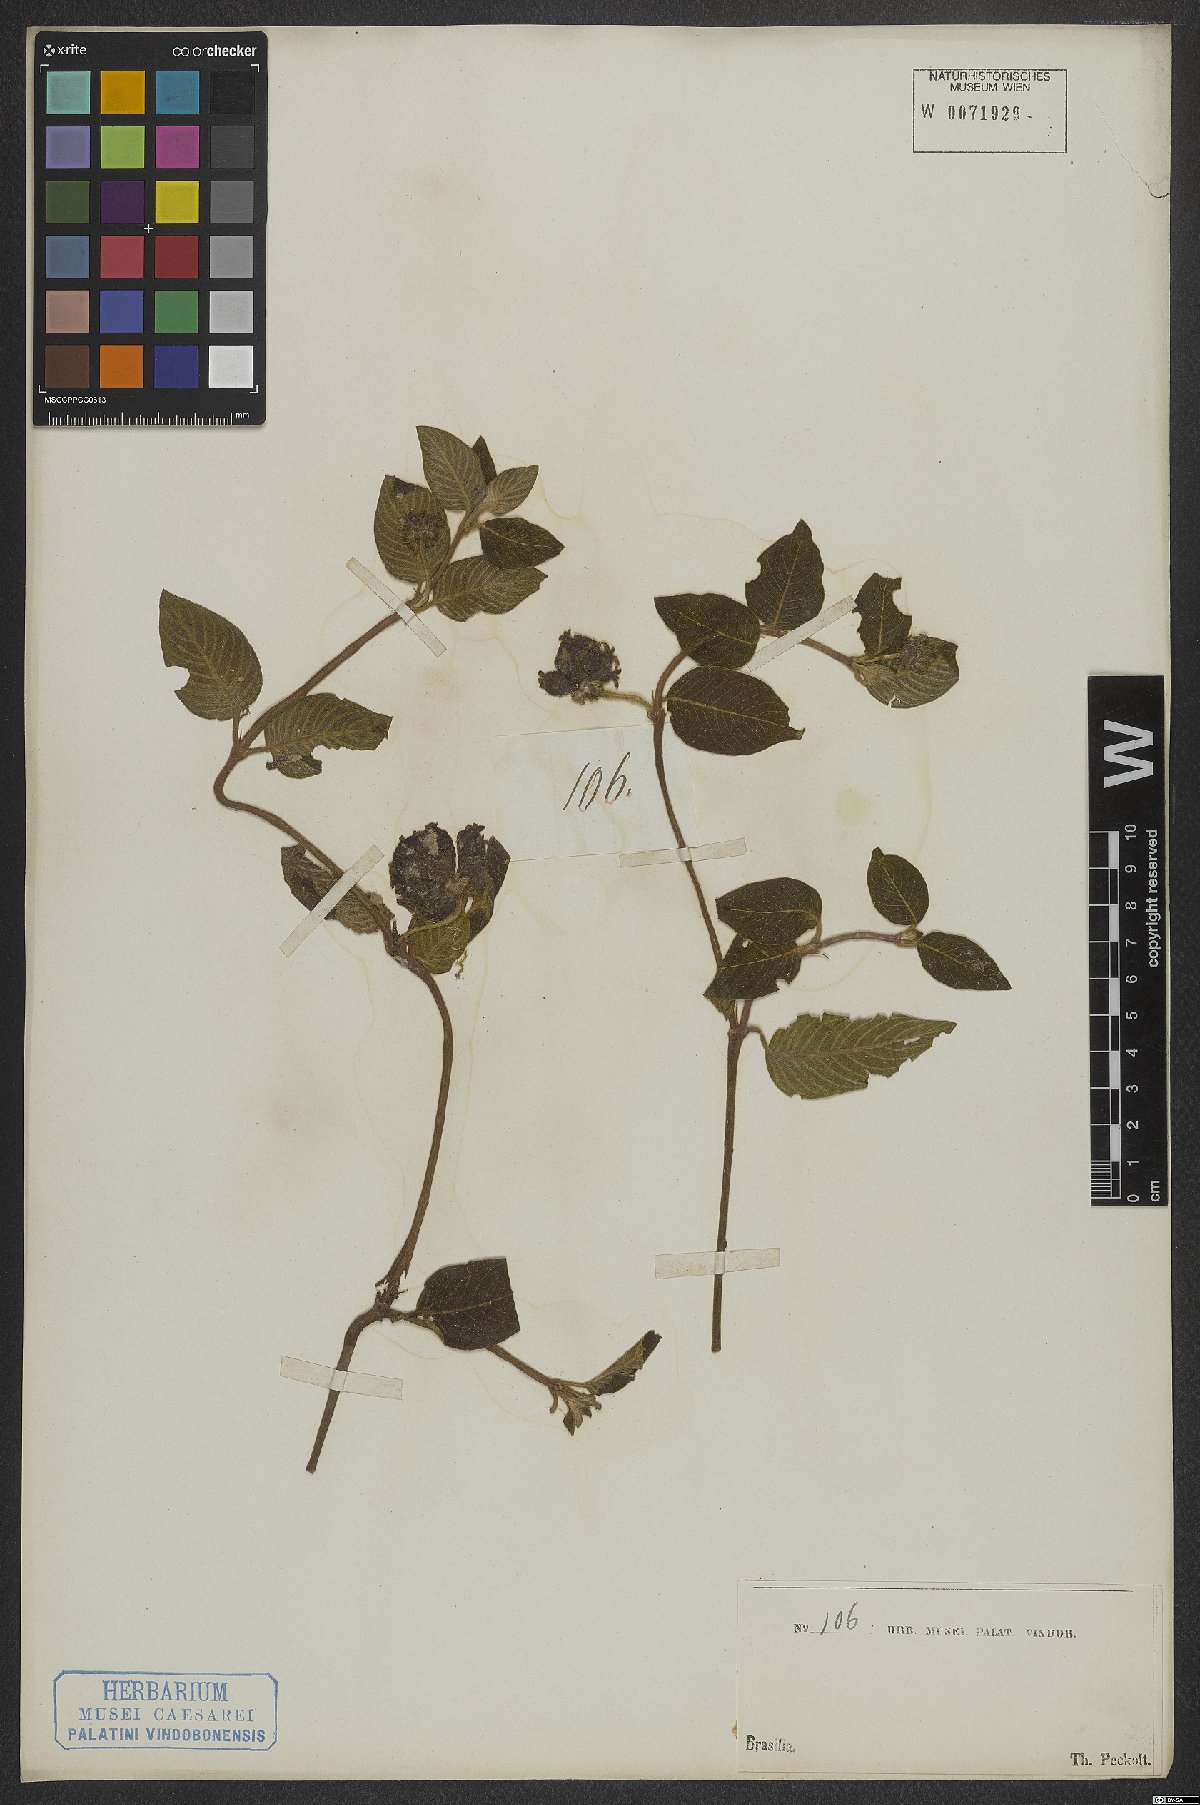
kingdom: Plantae
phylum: Tracheophyta
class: Magnoliopsida
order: Gentianales
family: Rubiaceae
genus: Coccocypselum
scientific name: Coccocypselum lanceolatum
